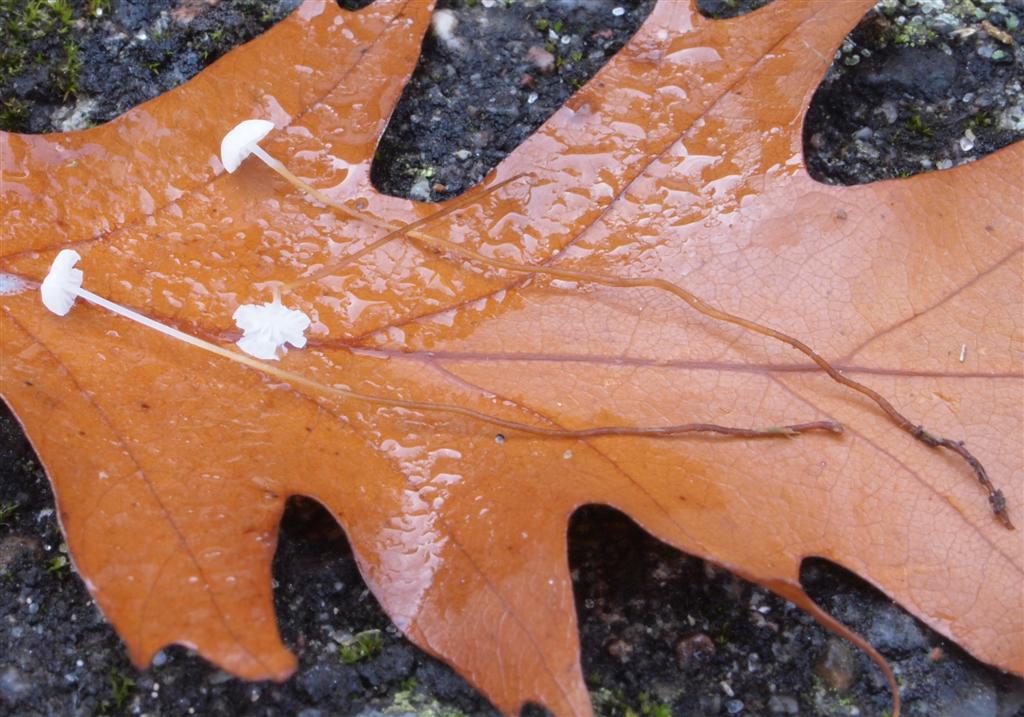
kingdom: Fungi
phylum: Basidiomycota
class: Agaricomycetes
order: Agaricales
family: Physalacriaceae
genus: Rhizomarasmius
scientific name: Rhizomarasmius setosus
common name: bøgeblads-bruskhat
